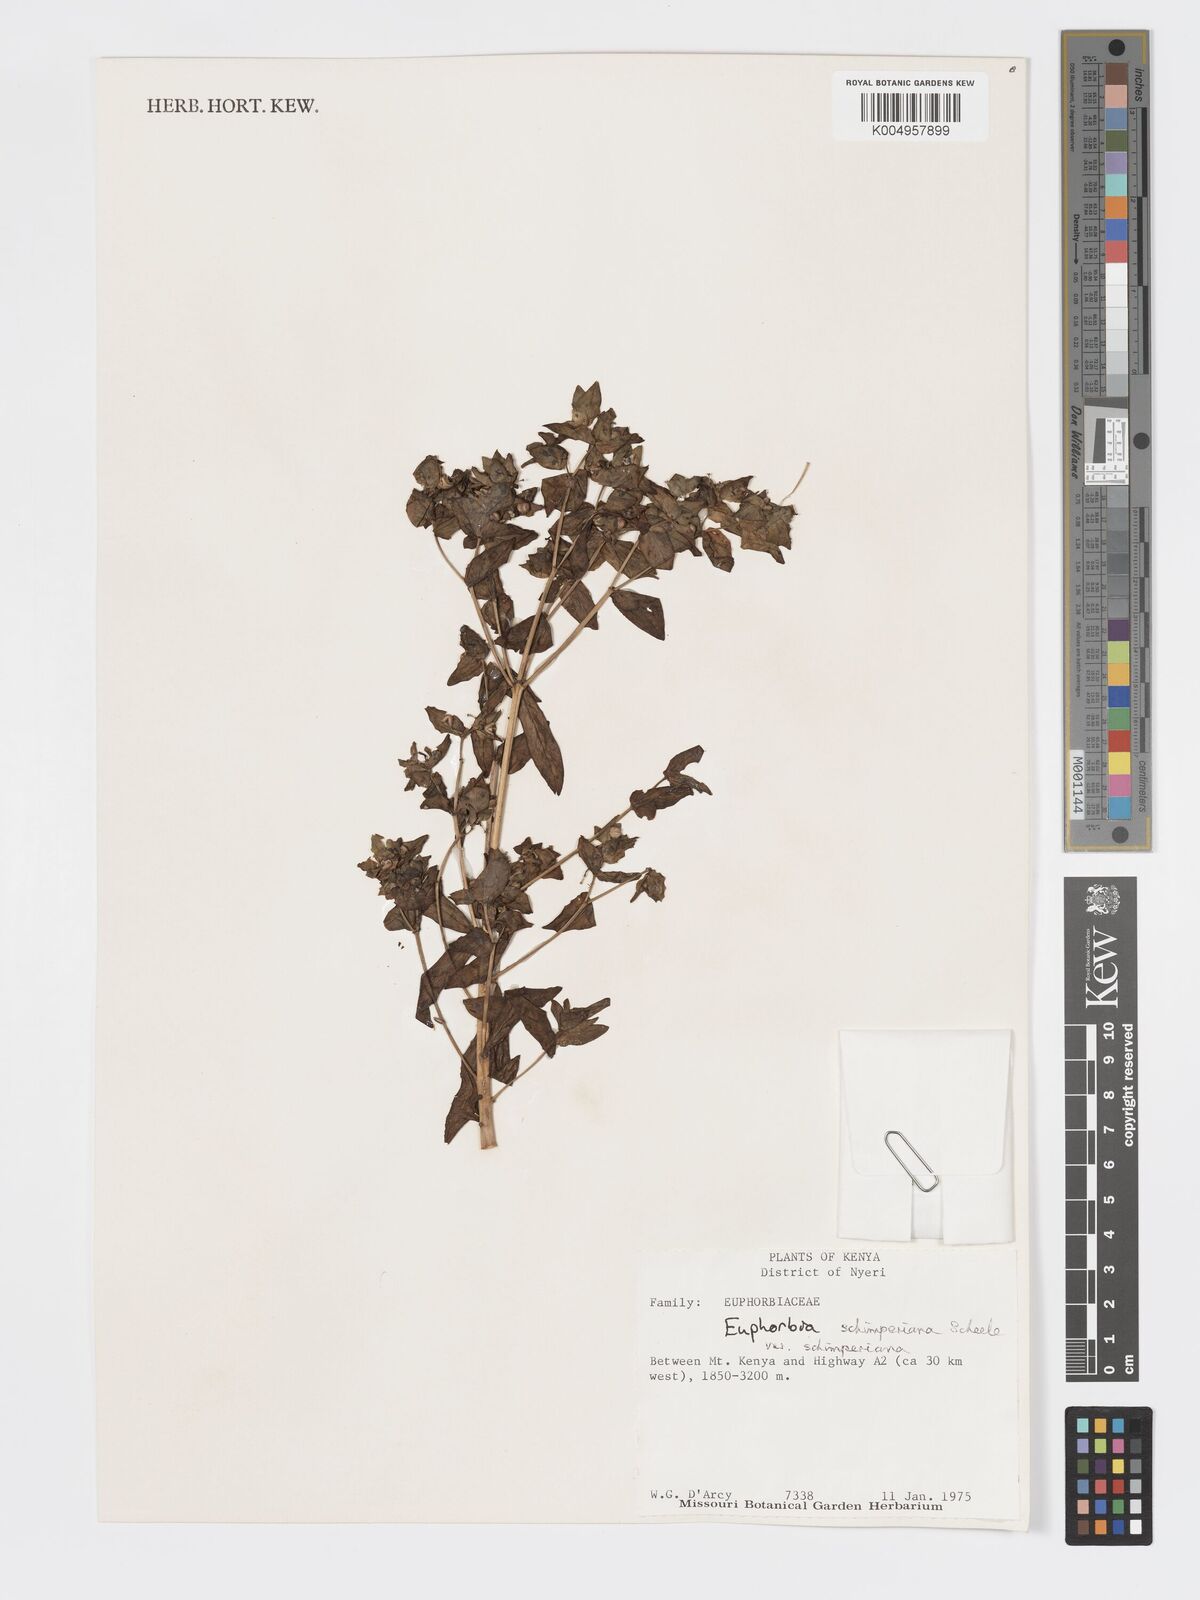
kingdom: Plantae
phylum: Tracheophyta
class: Magnoliopsida
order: Malpighiales
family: Euphorbiaceae
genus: Euphorbia
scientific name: Euphorbia schimperiana
